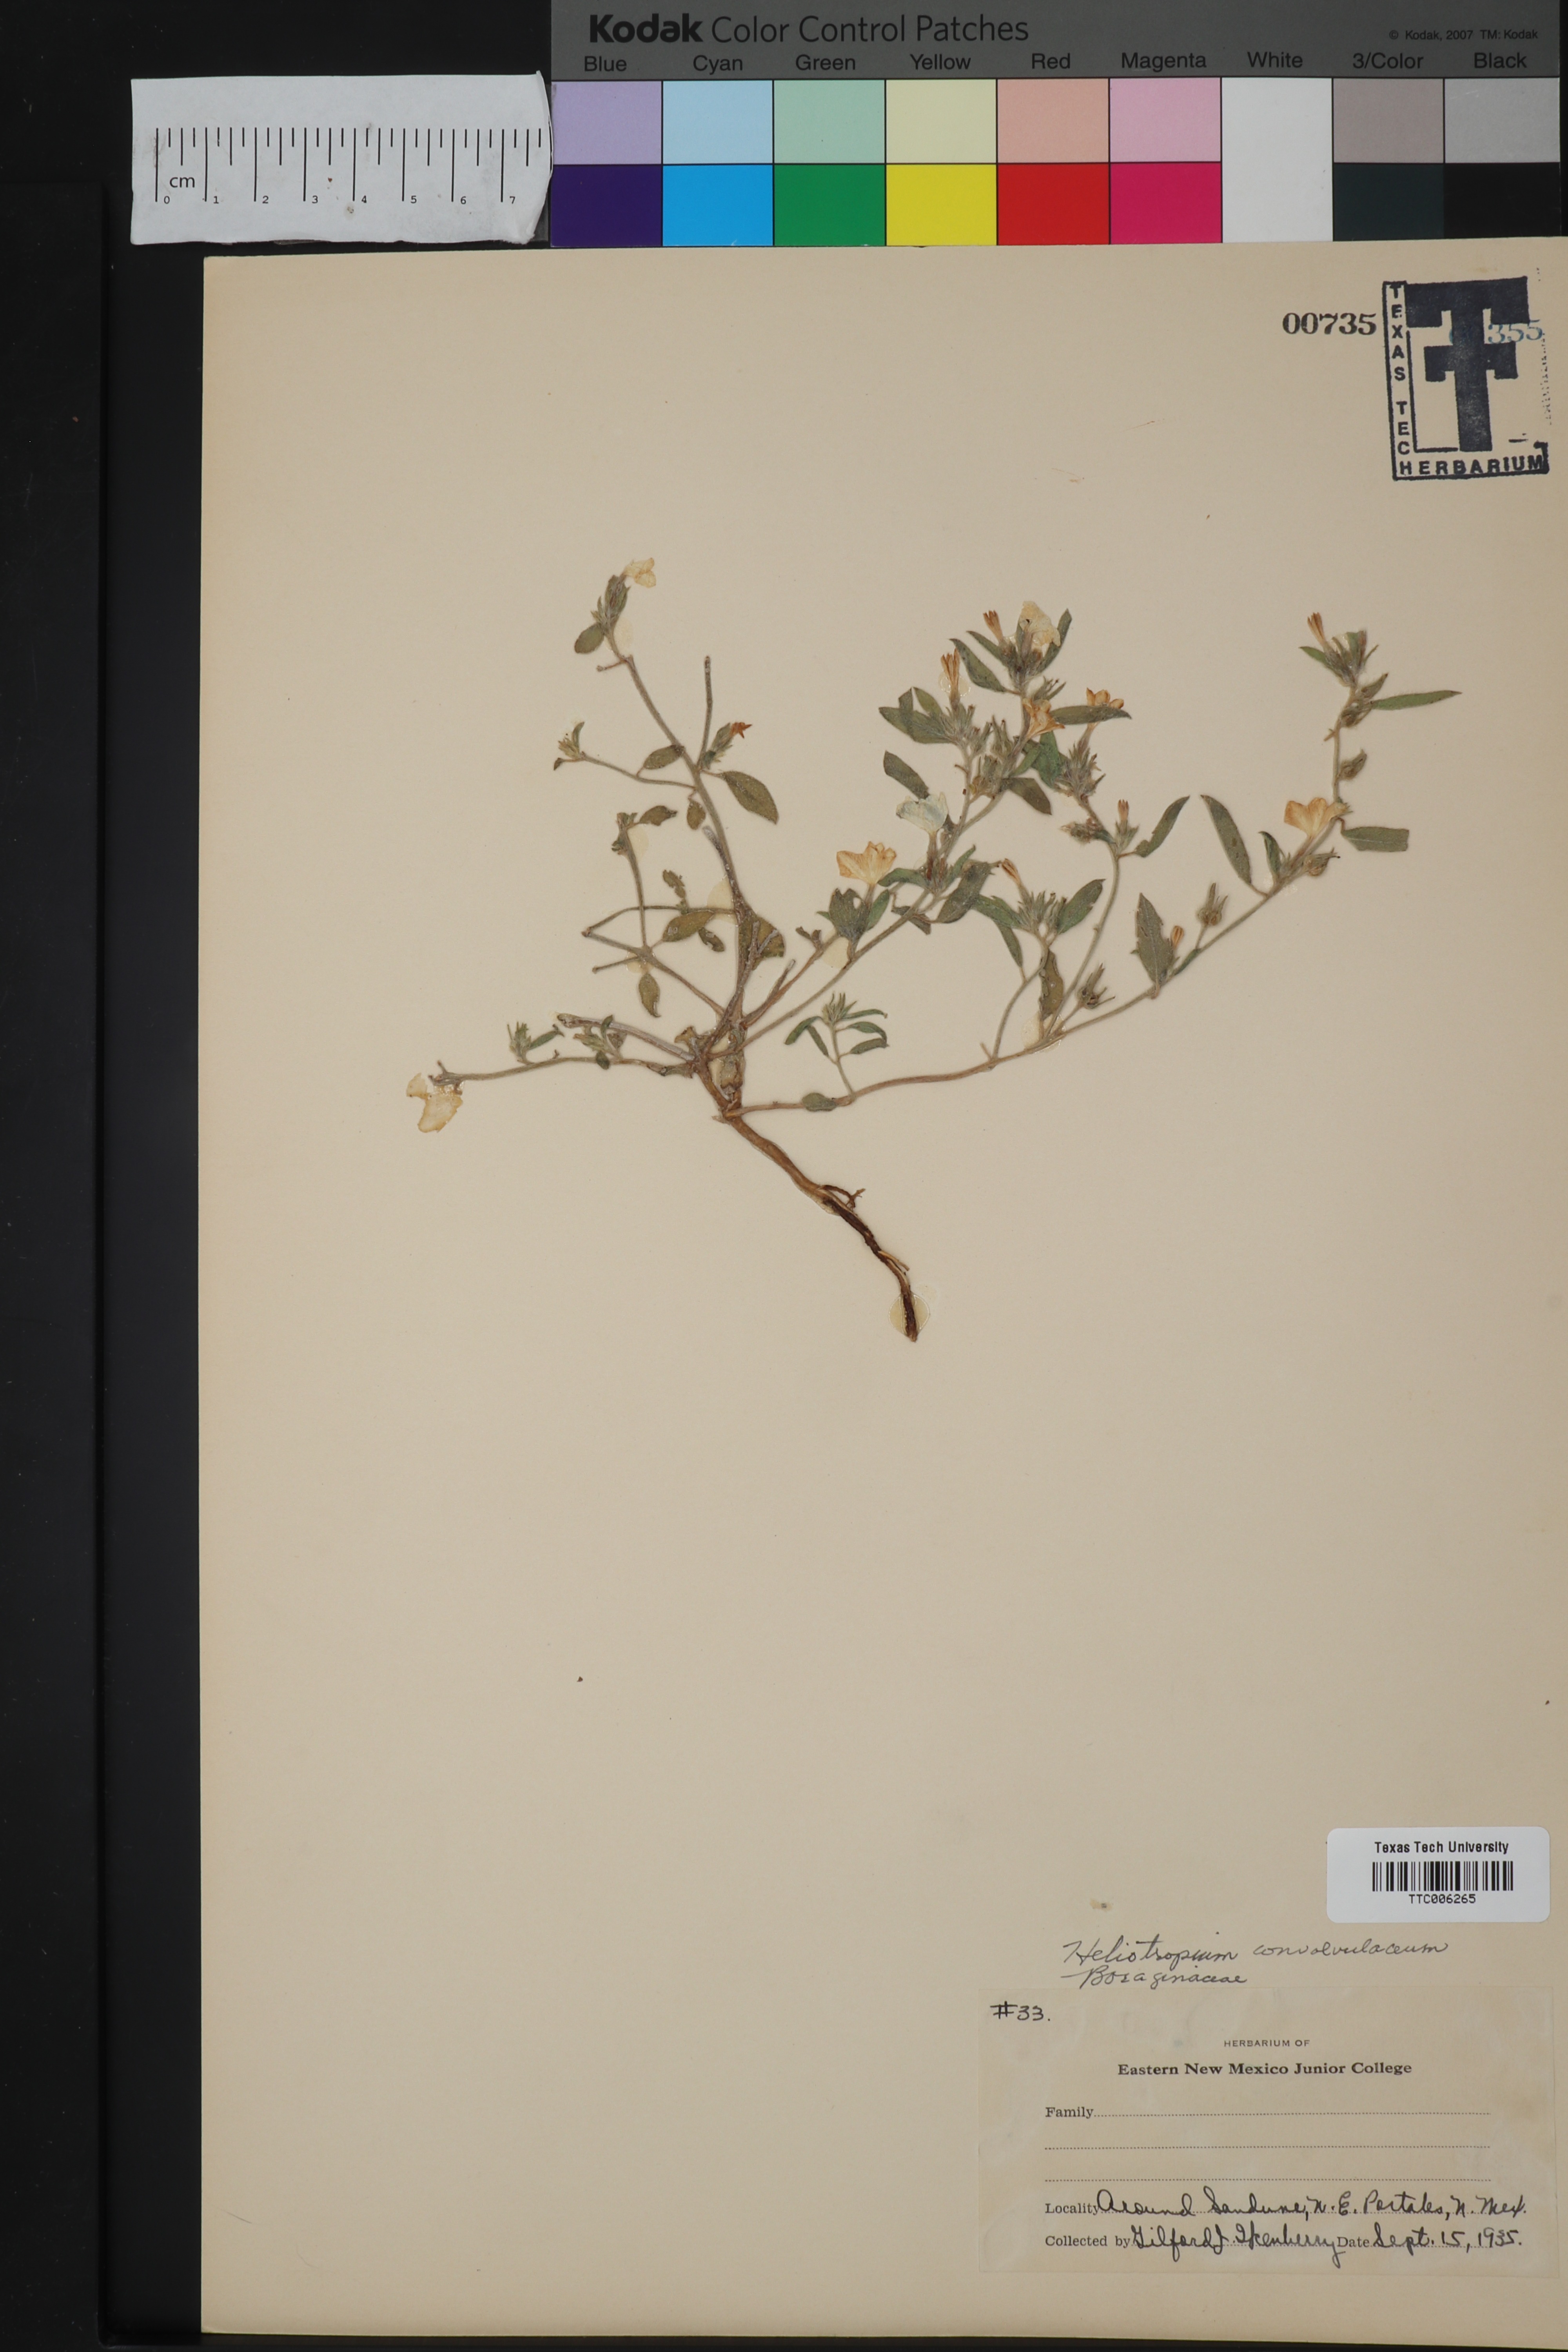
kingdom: Plantae
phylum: Tracheophyta
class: Magnoliopsida
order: Boraginales
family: Heliotropiaceae
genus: Euploca
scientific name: Euploca convolvulacea
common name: Bindweed heliotrope
